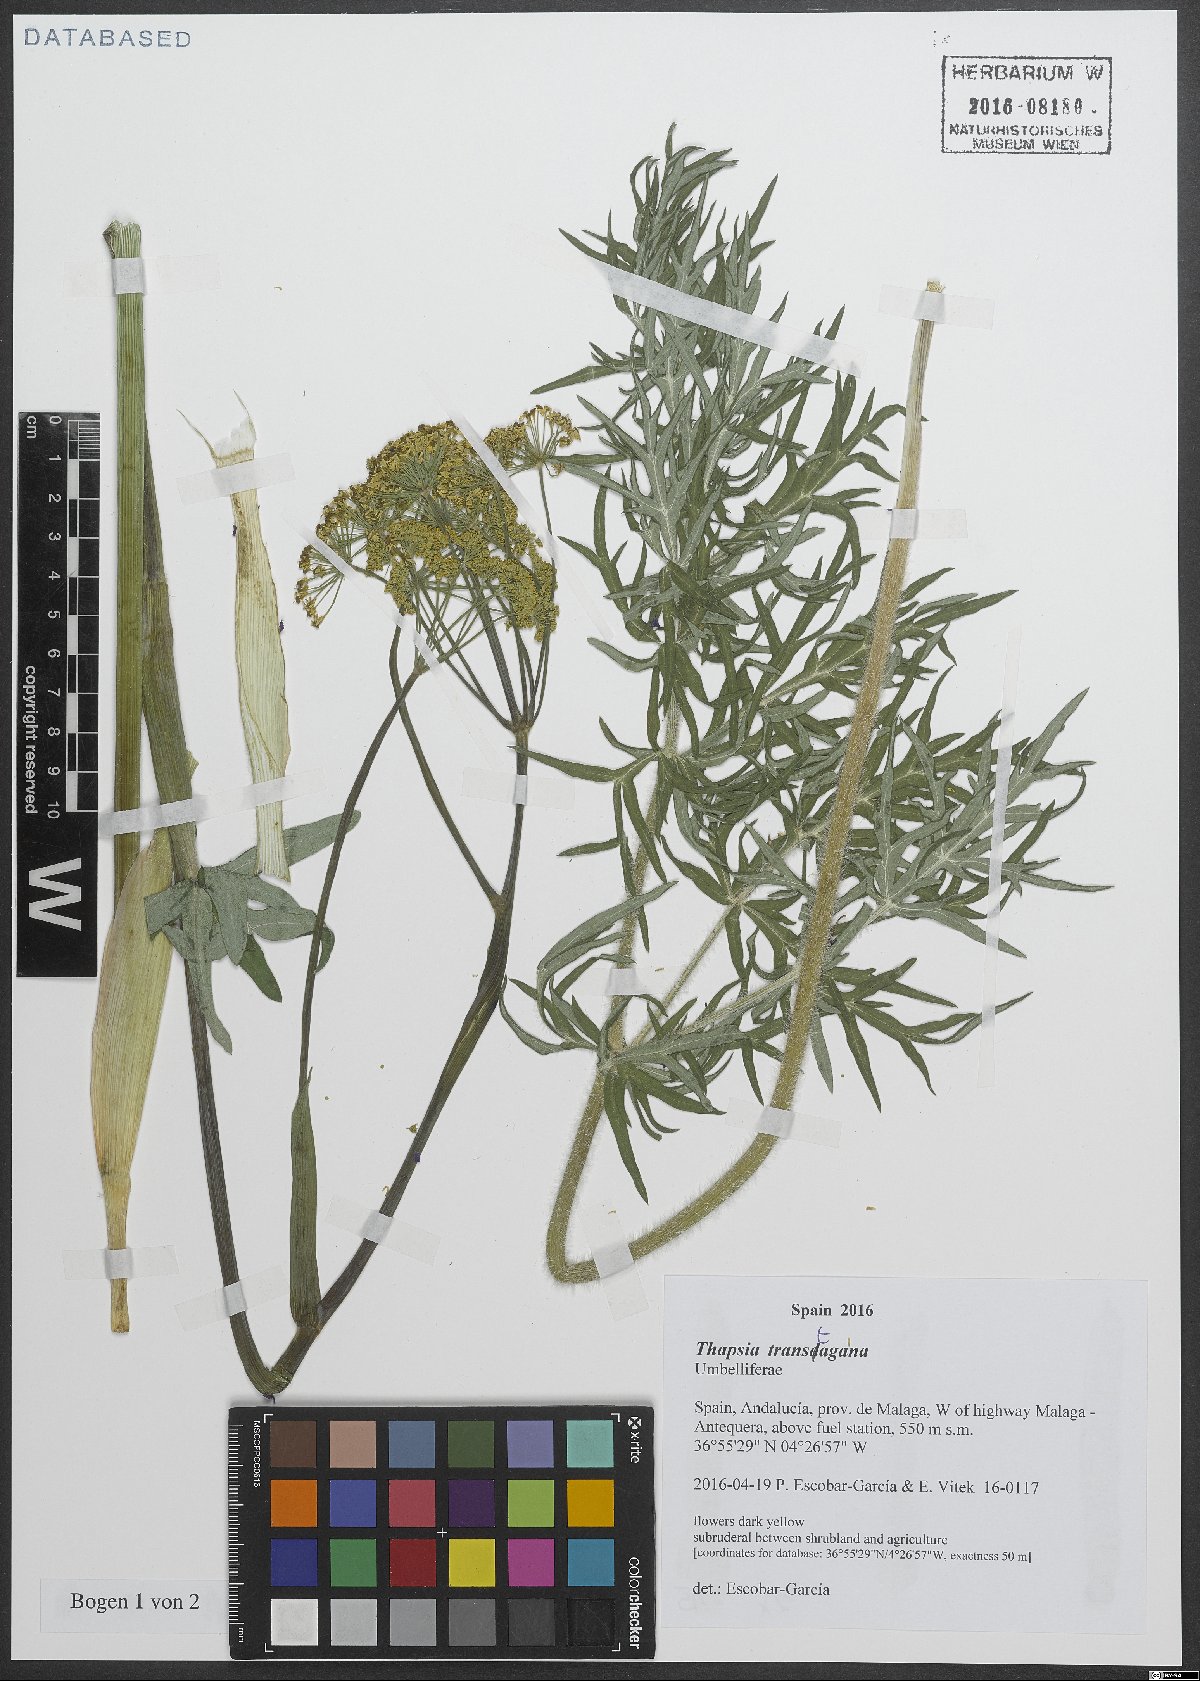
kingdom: Plantae
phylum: Tracheophyta
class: Magnoliopsida
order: Apiales
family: Apiaceae
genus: Thapsia
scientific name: Thapsia transtagana
